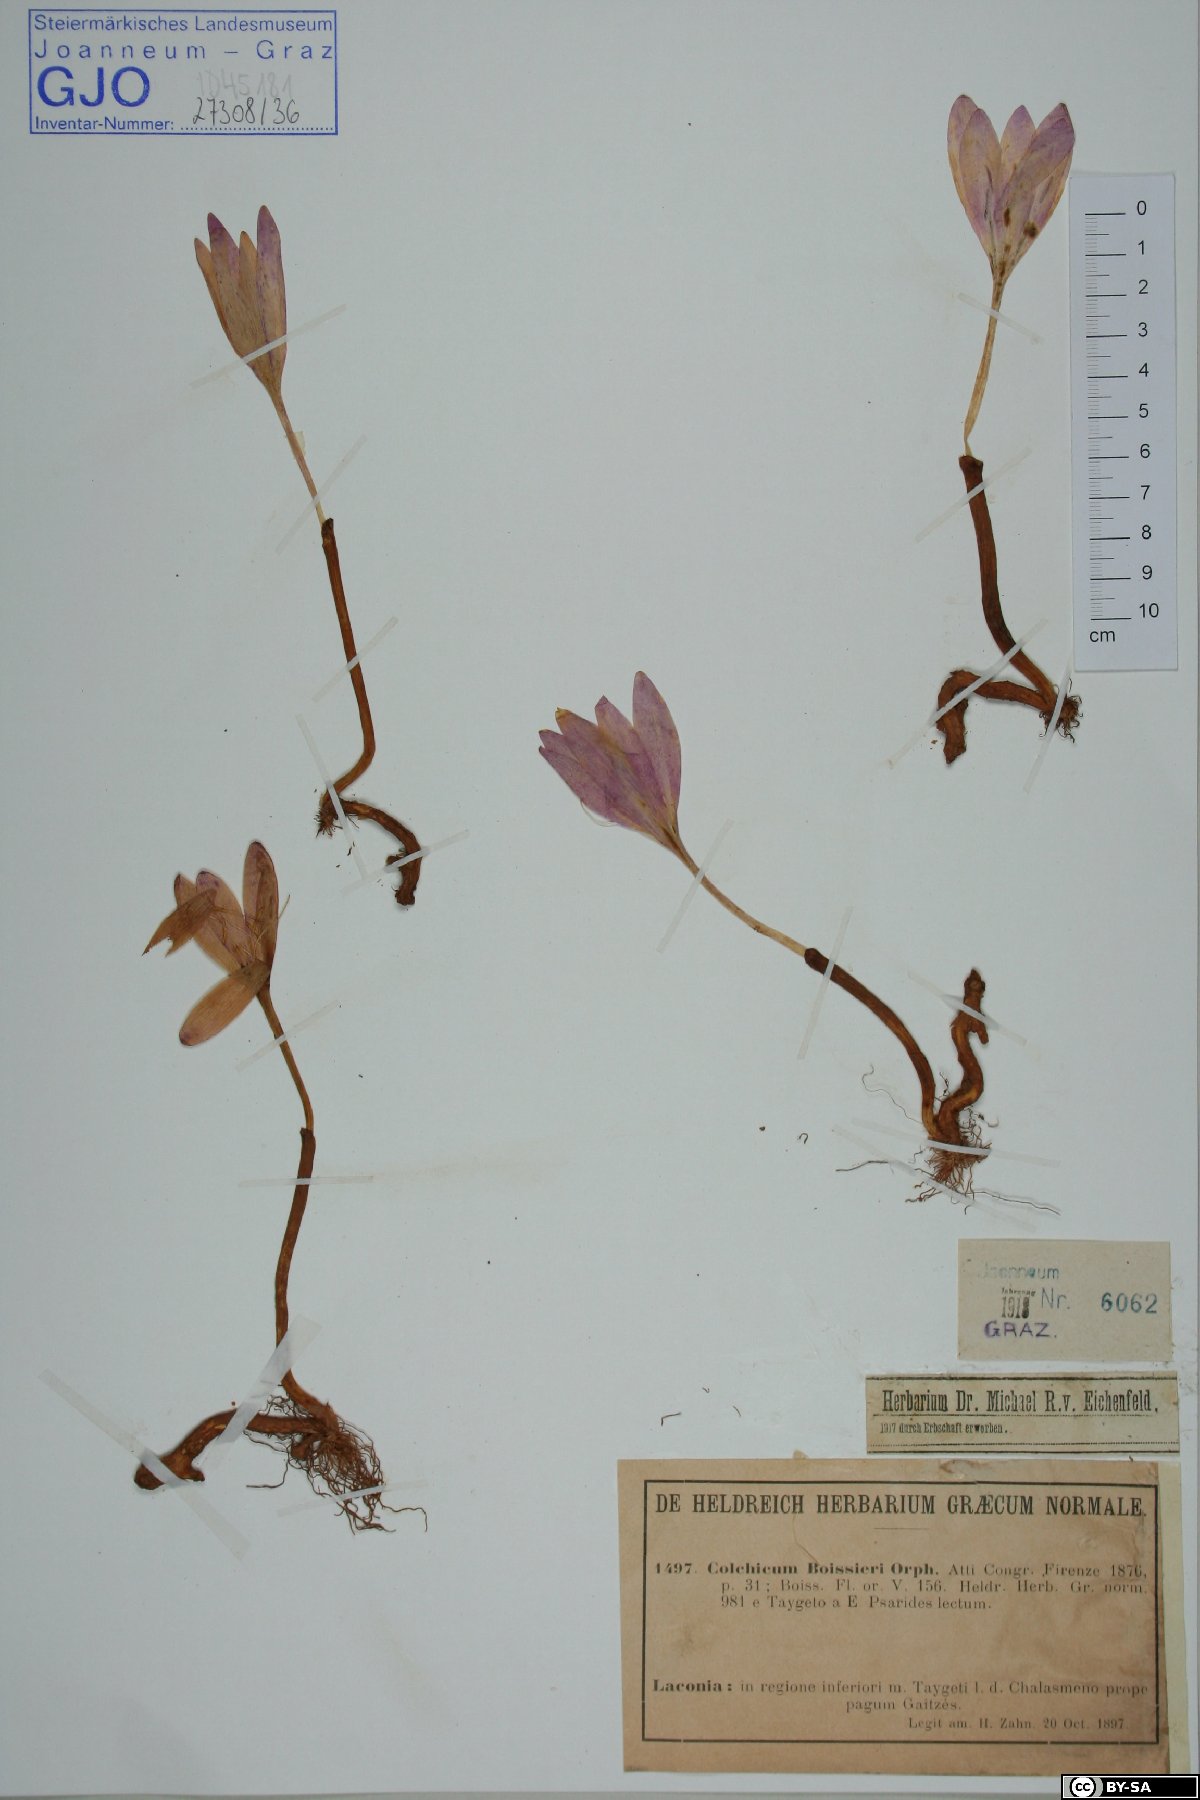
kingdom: Plantae
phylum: Tracheophyta
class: Liliopsida
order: Liliales
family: Colchicaceae
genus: Colchicum
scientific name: Colchicum boissieri
